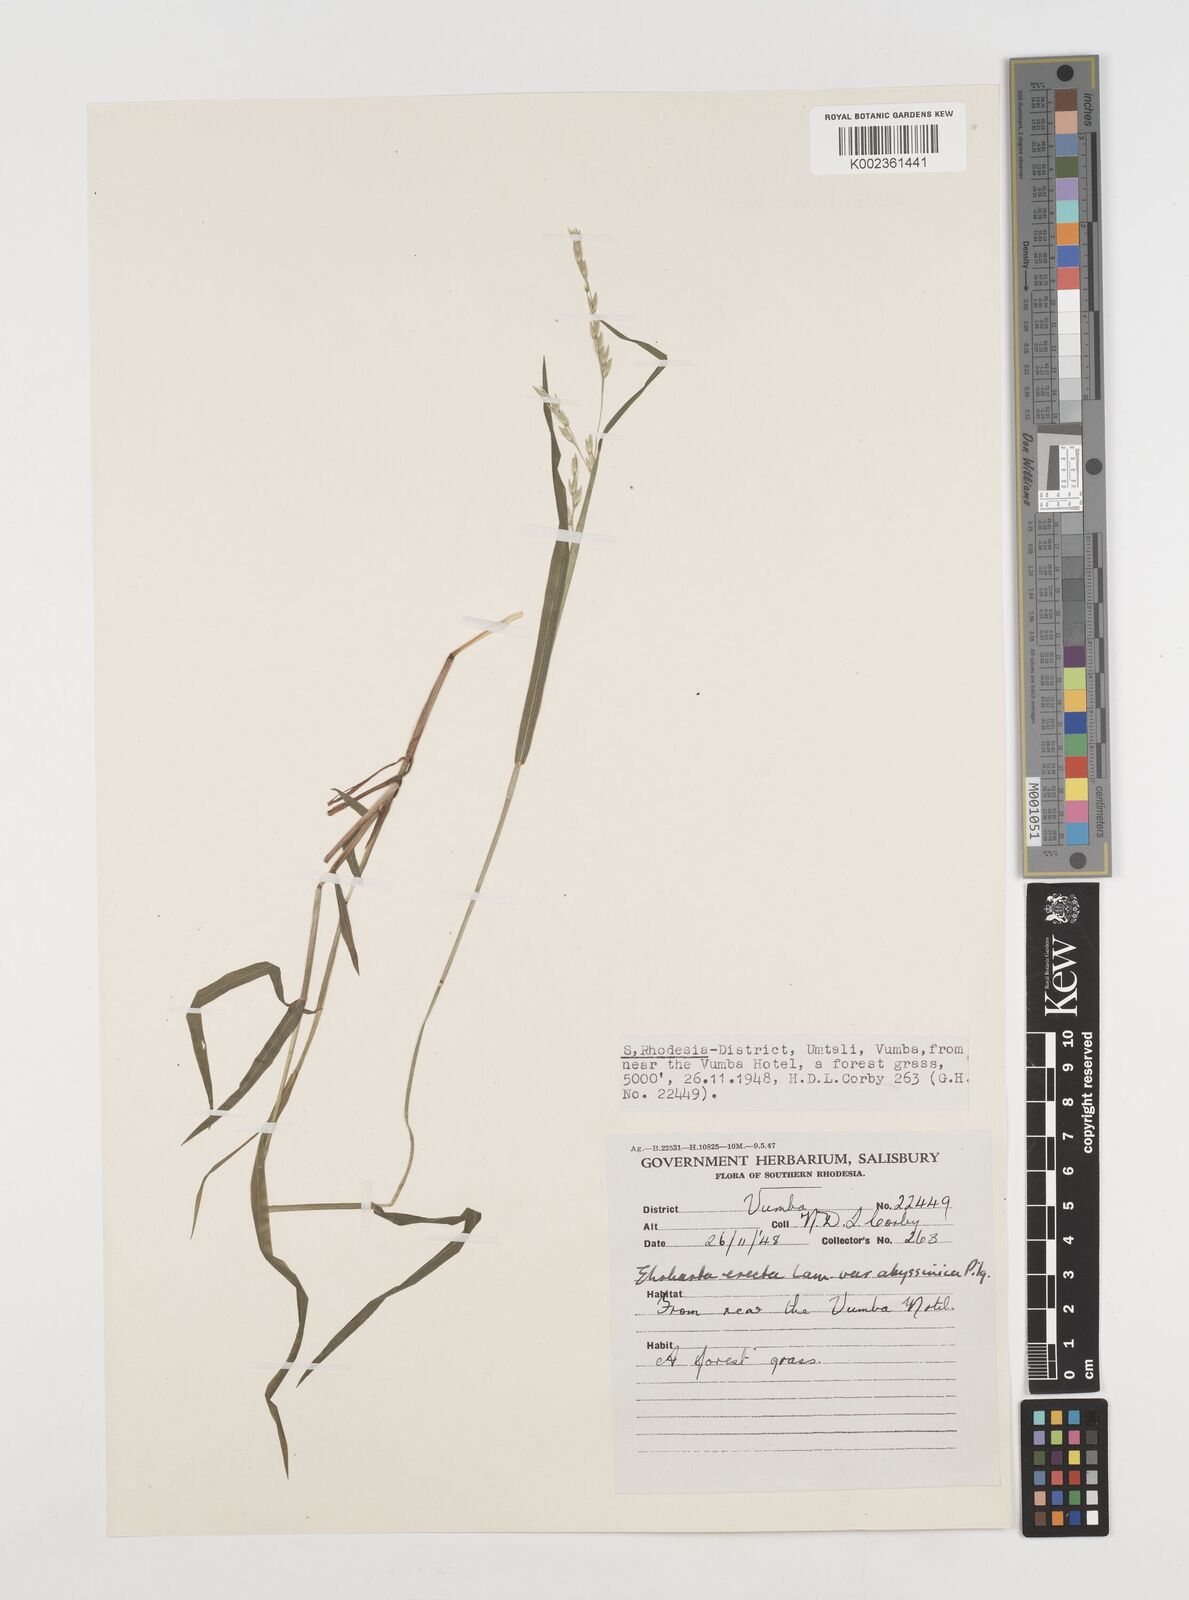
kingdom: Plantae
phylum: Tracheophyta
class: Liliopsida
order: Poales
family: Poaceae
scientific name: Poaceae
